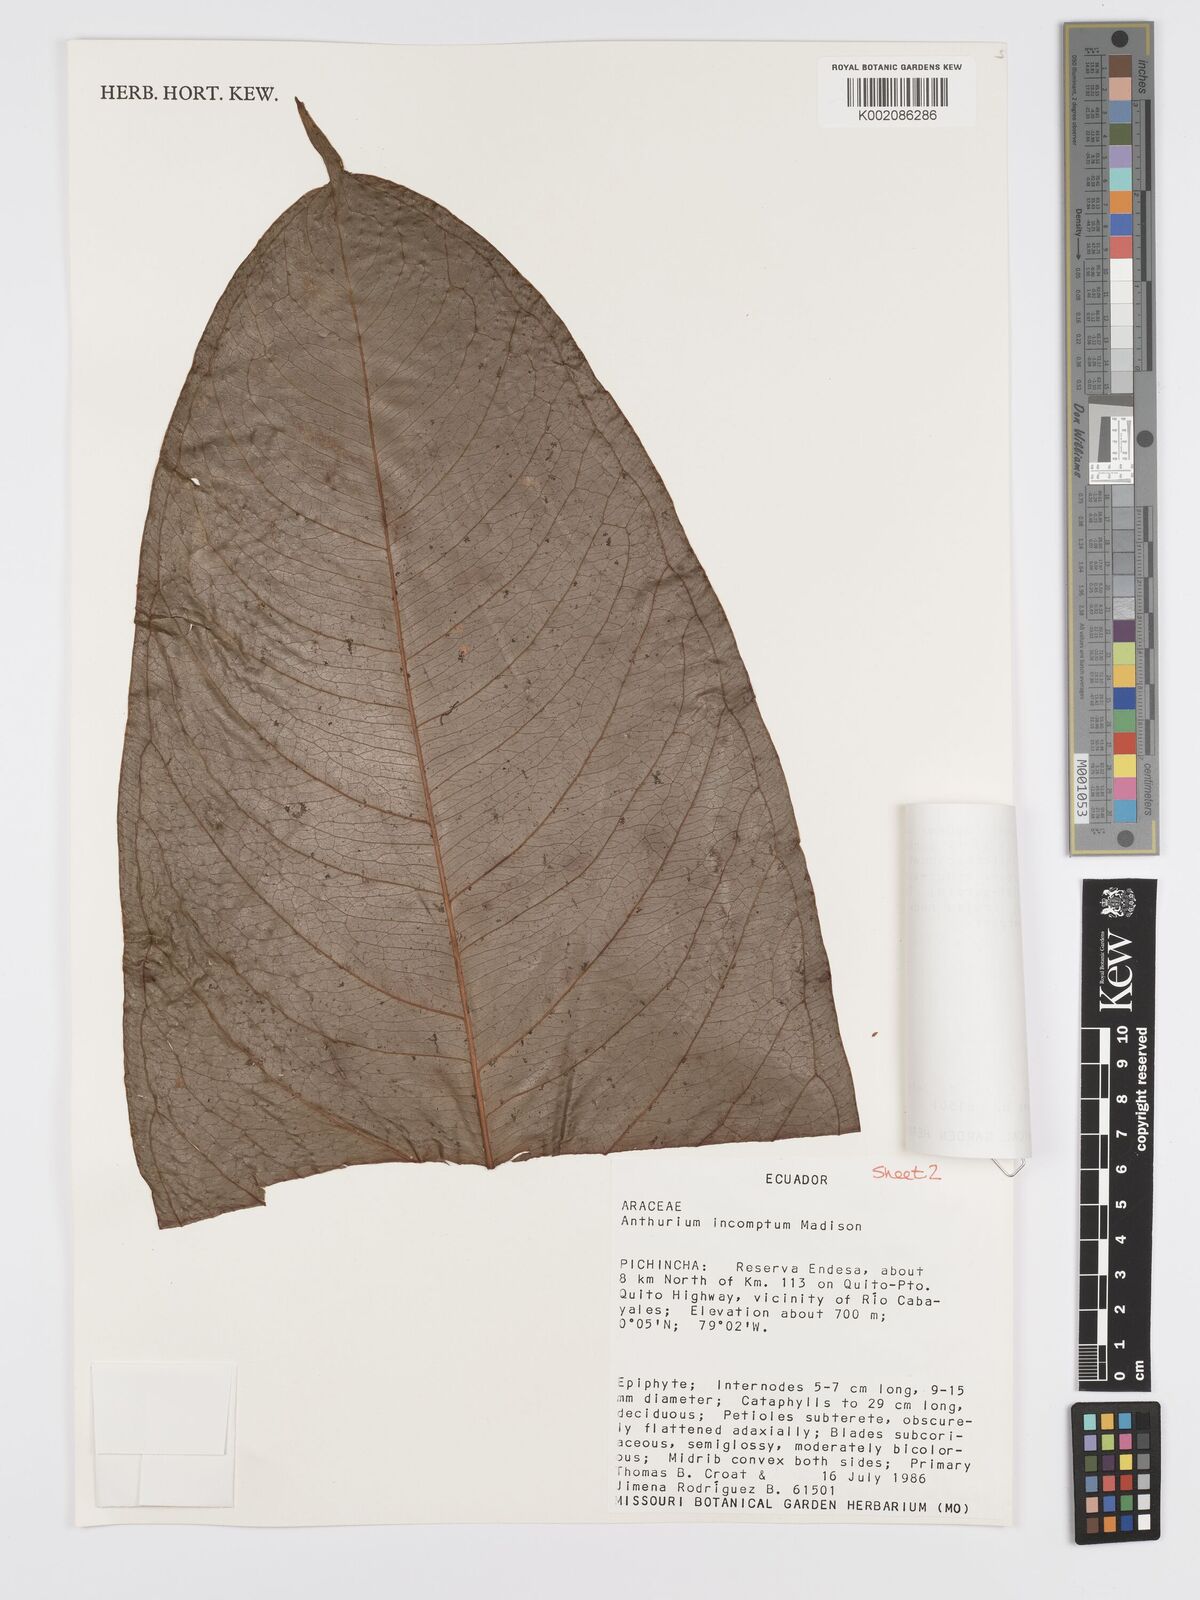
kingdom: Plantae
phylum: Tracheophyta
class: Liliopsida
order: Alismatales
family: Araceae
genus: Anthurium
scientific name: Anthurium incomptum
